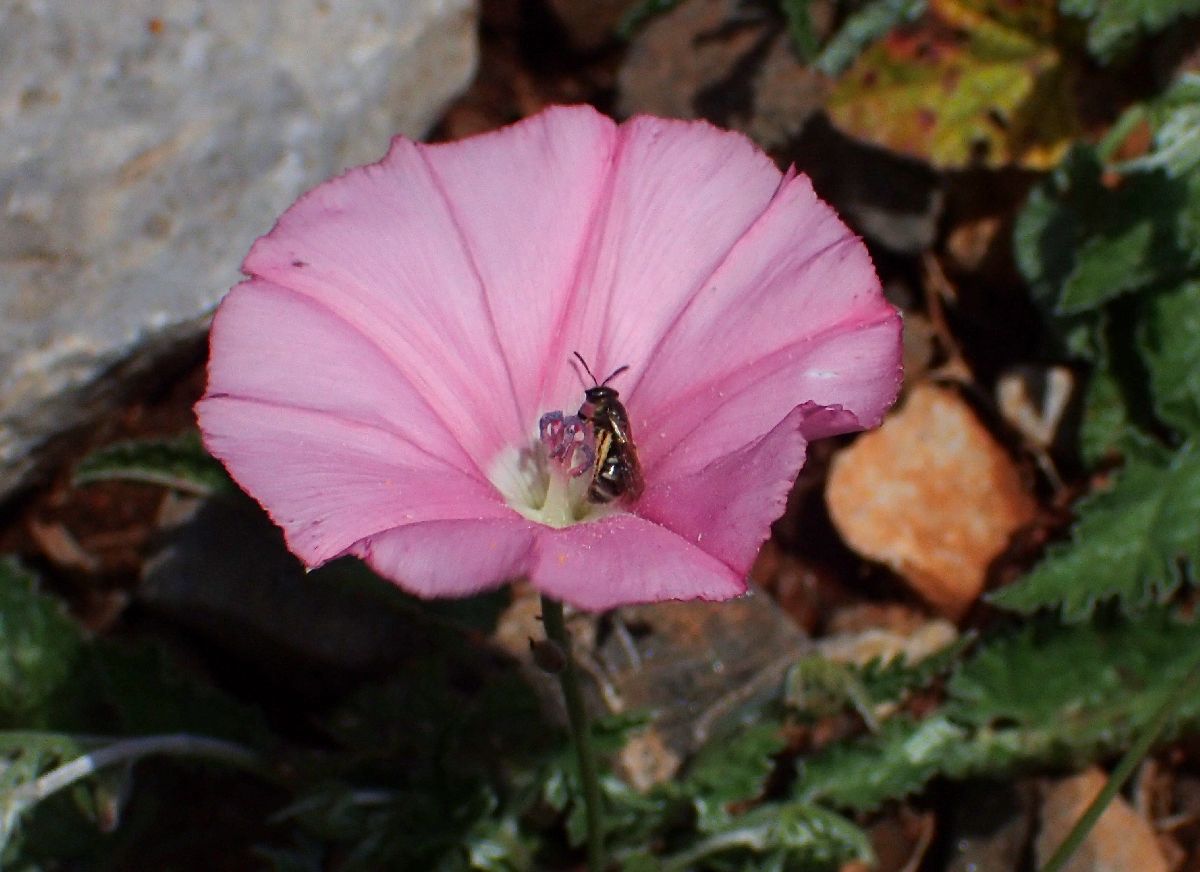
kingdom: Plantae
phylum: Tracheophyta
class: Magnoliopsida
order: Solanales
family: Convolvulaceae
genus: Convolvulus
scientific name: Convolvulus althaeoides
